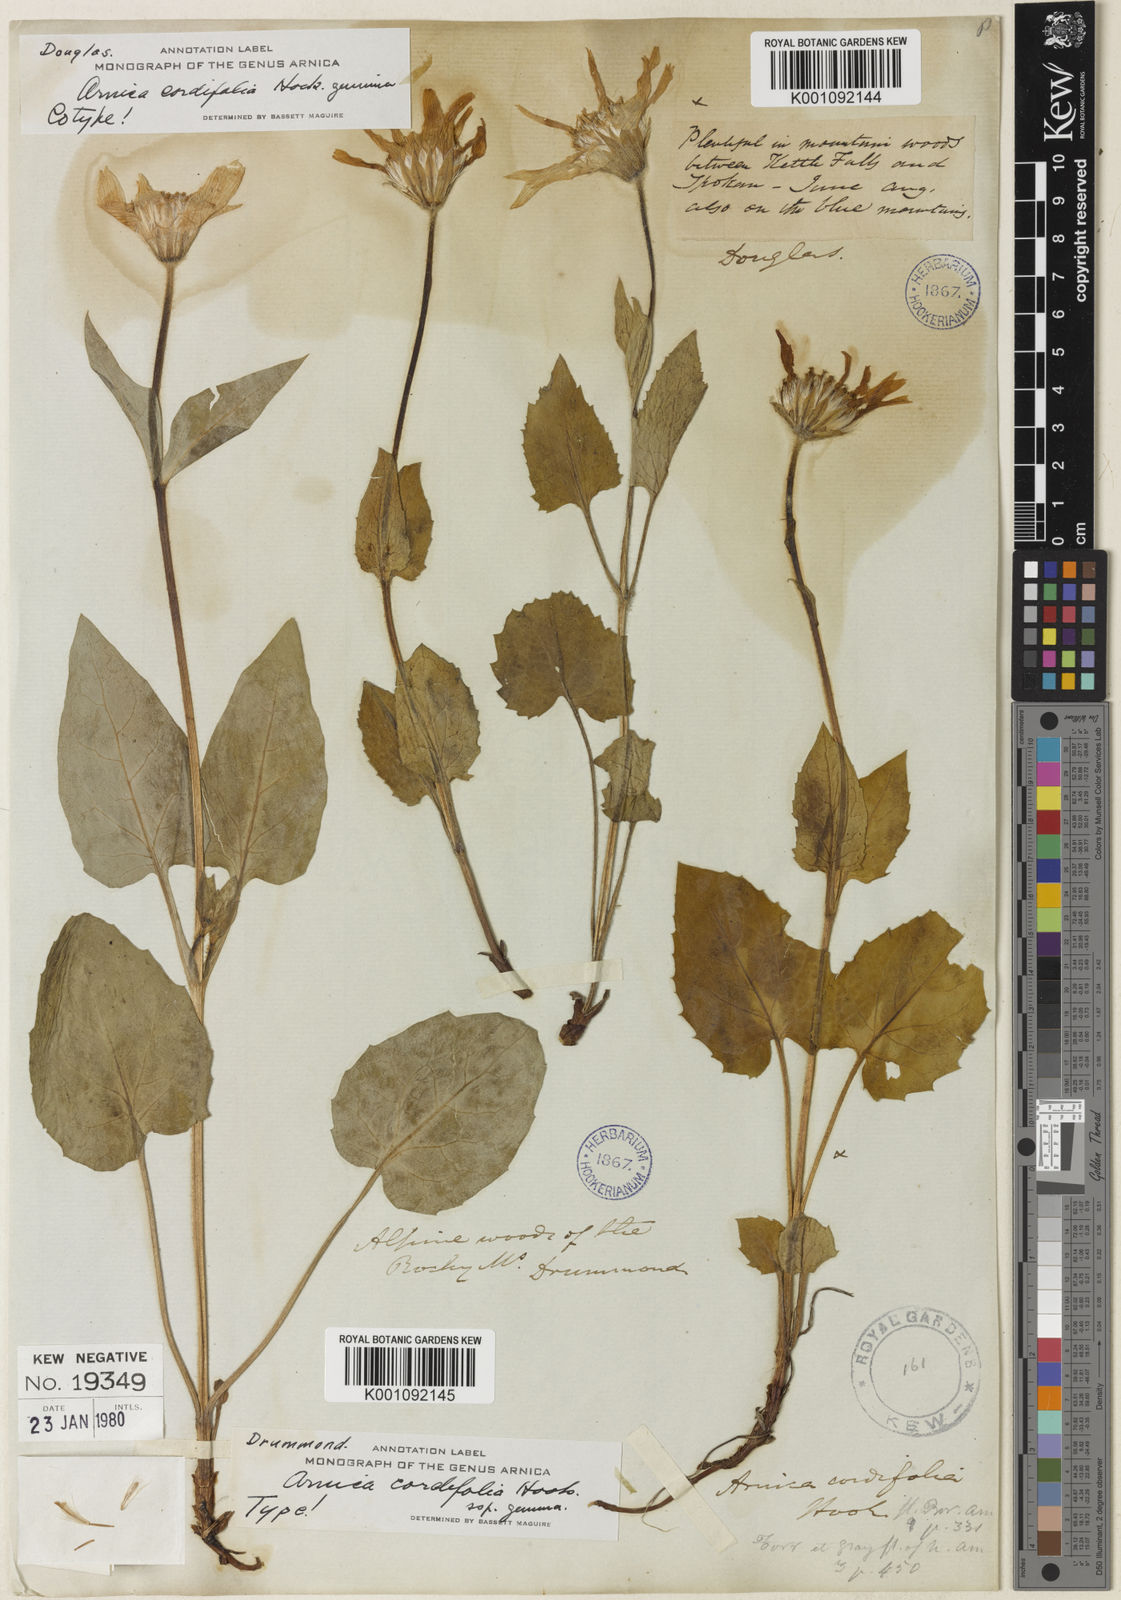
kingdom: Plantae
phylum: Tracheophyta
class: Magnoliopsida
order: Asterales
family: Asteraceae
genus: Arnica
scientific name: Arnica cordifolia
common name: Heart-leaf arnica
